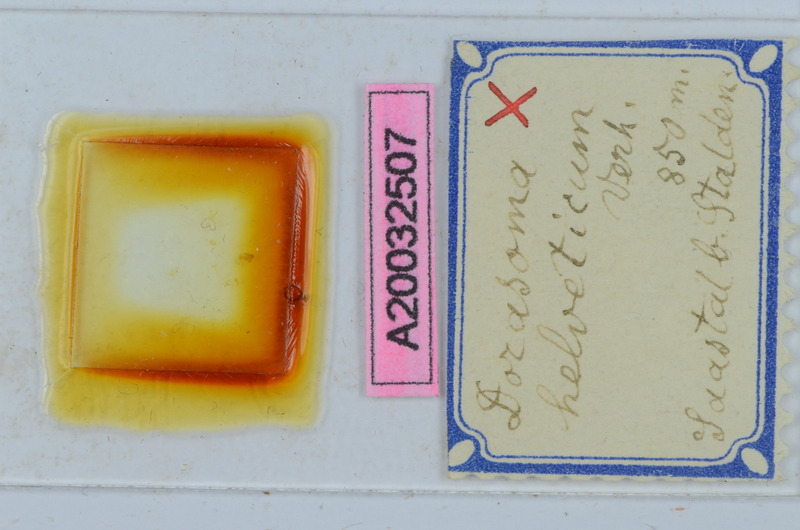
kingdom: Animalia
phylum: Arthropoda
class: Diplopoda
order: Chordeumatida
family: Craspedosomatidae
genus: Bomogona
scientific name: Bomogona helvetica
